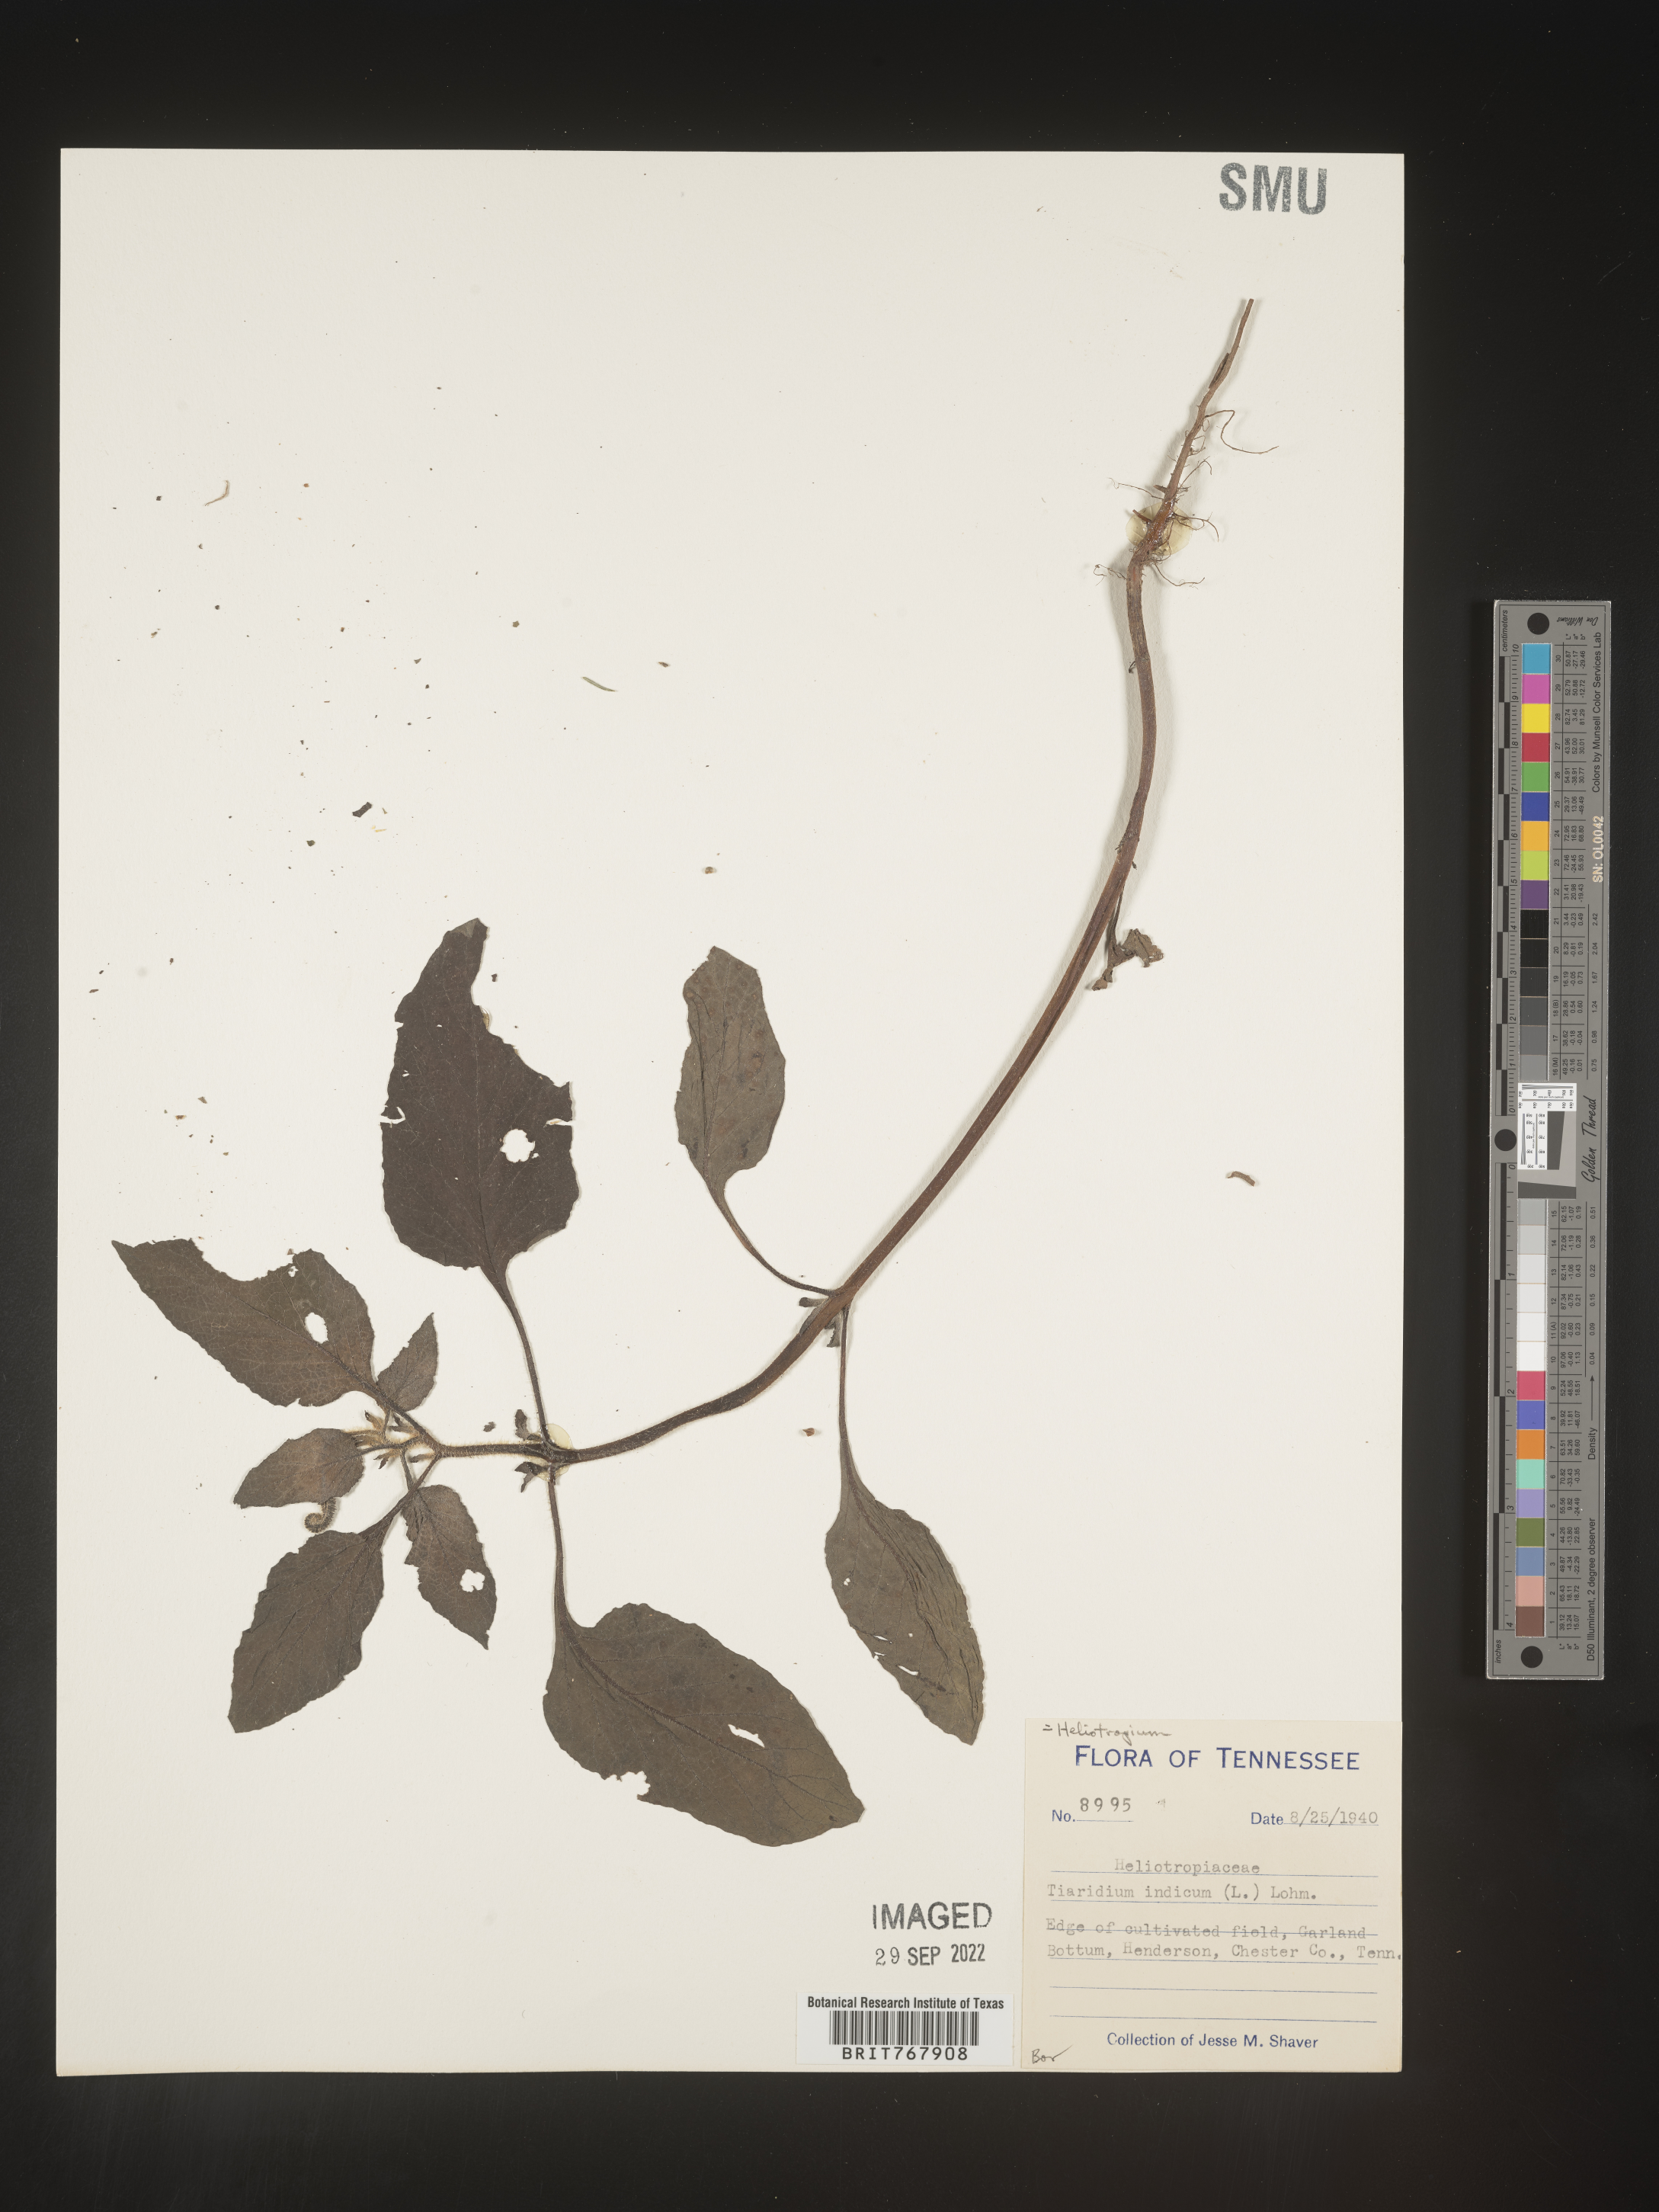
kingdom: Plantae
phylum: Tracheophyta
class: Magnoliopsida
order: Boraginales
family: Heliotropiaceae
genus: Heliotropium
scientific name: Heliotropium indicum
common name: Indian heliotrope
